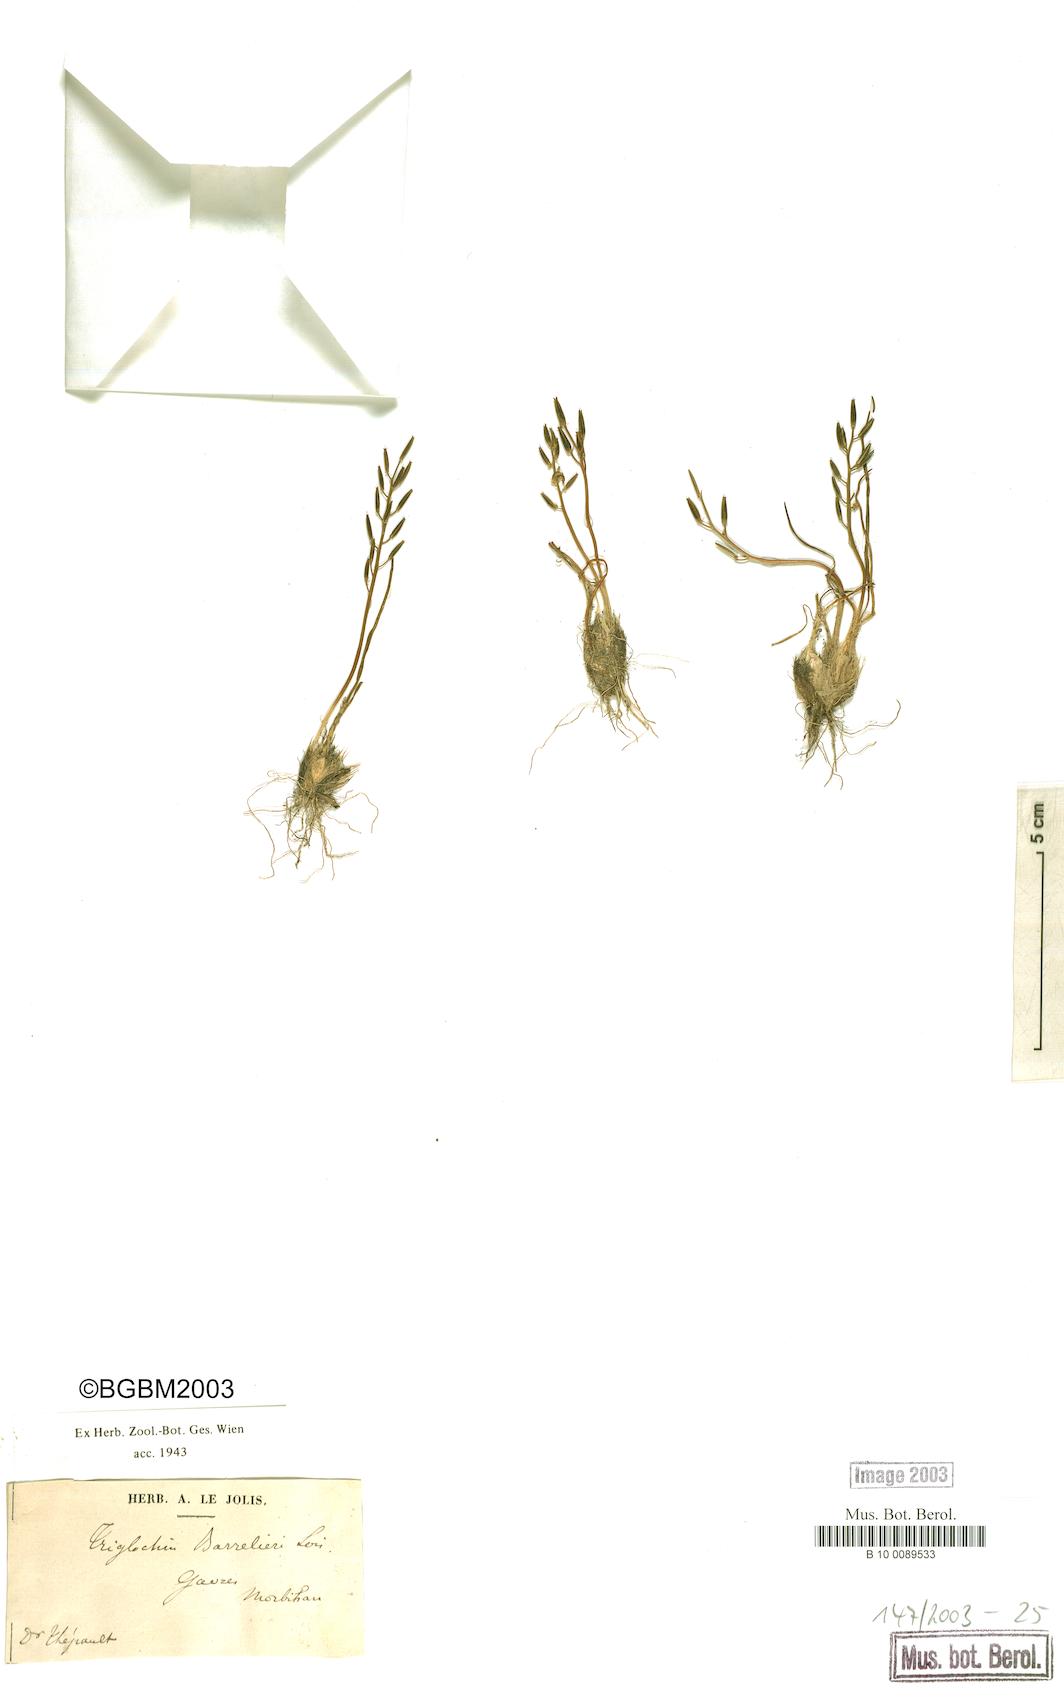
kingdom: Plantae
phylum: Tracheophyta
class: Liliopsida
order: Alismatales
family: Juncaginaceae
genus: Triglochin
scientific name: Triglochin bulbosa
